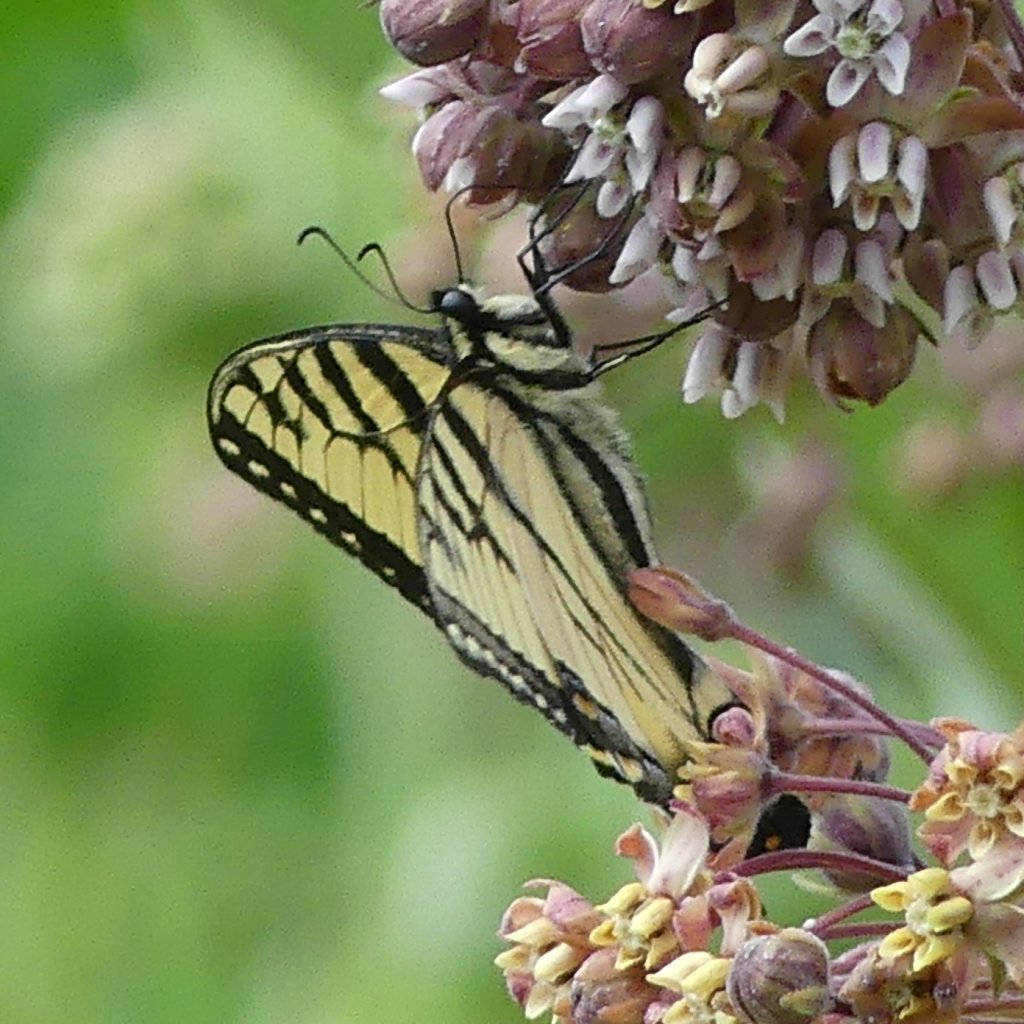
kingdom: Animalia
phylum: Arthropoda
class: Insecta
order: Lepidoptera
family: Papilionidae
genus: Pterourus
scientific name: Pterourus glaucus
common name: Eastern Tiger Swallowtail
